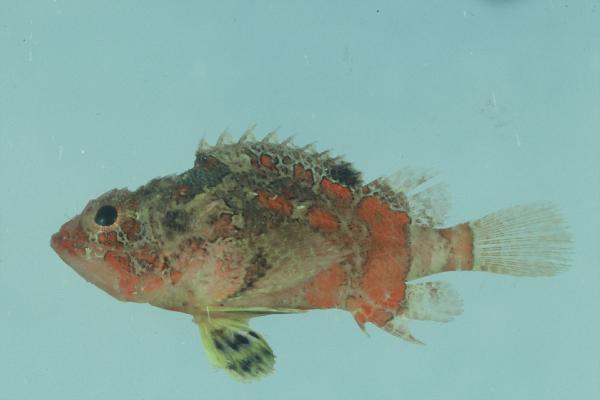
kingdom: Animalia
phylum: Chordata
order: Scorpaeniformes
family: Scorpaenidae
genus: Scorpaenodes
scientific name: Scorpaenodes varipinnis
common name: Blotchfin scorpionfish
